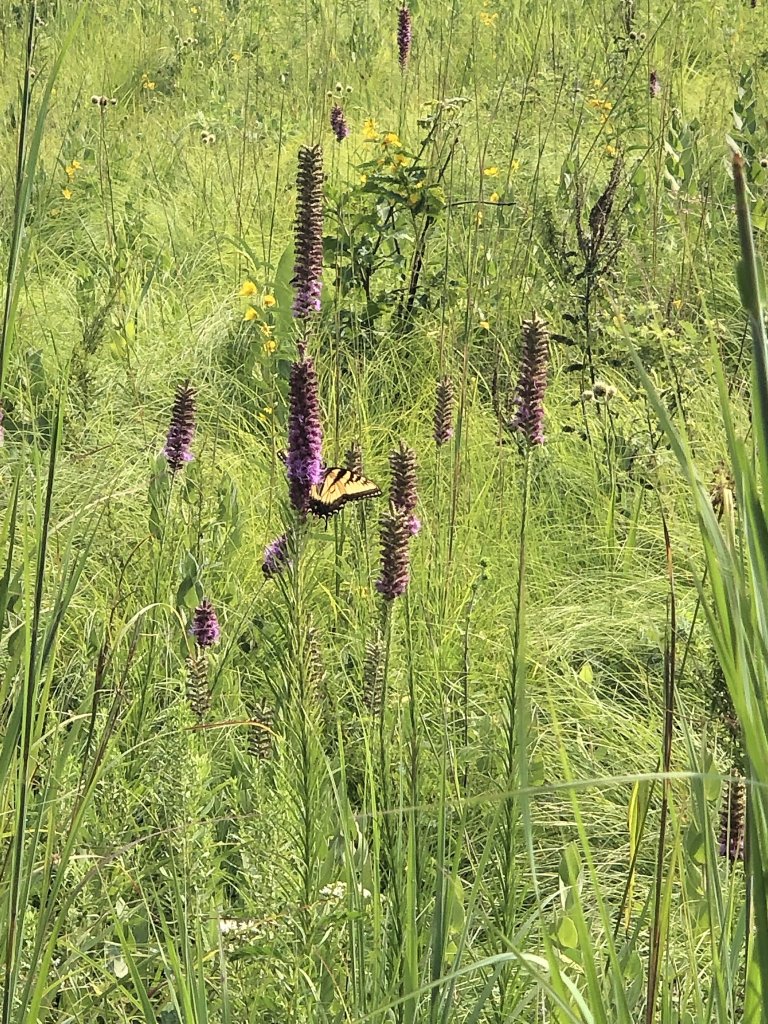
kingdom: Animalia
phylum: Arthropoda
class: Insecta
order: Lepidoptera
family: Papilionidae
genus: Pterourus
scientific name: Pterourus glaucus
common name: Eastern Tiger Swallowtail
